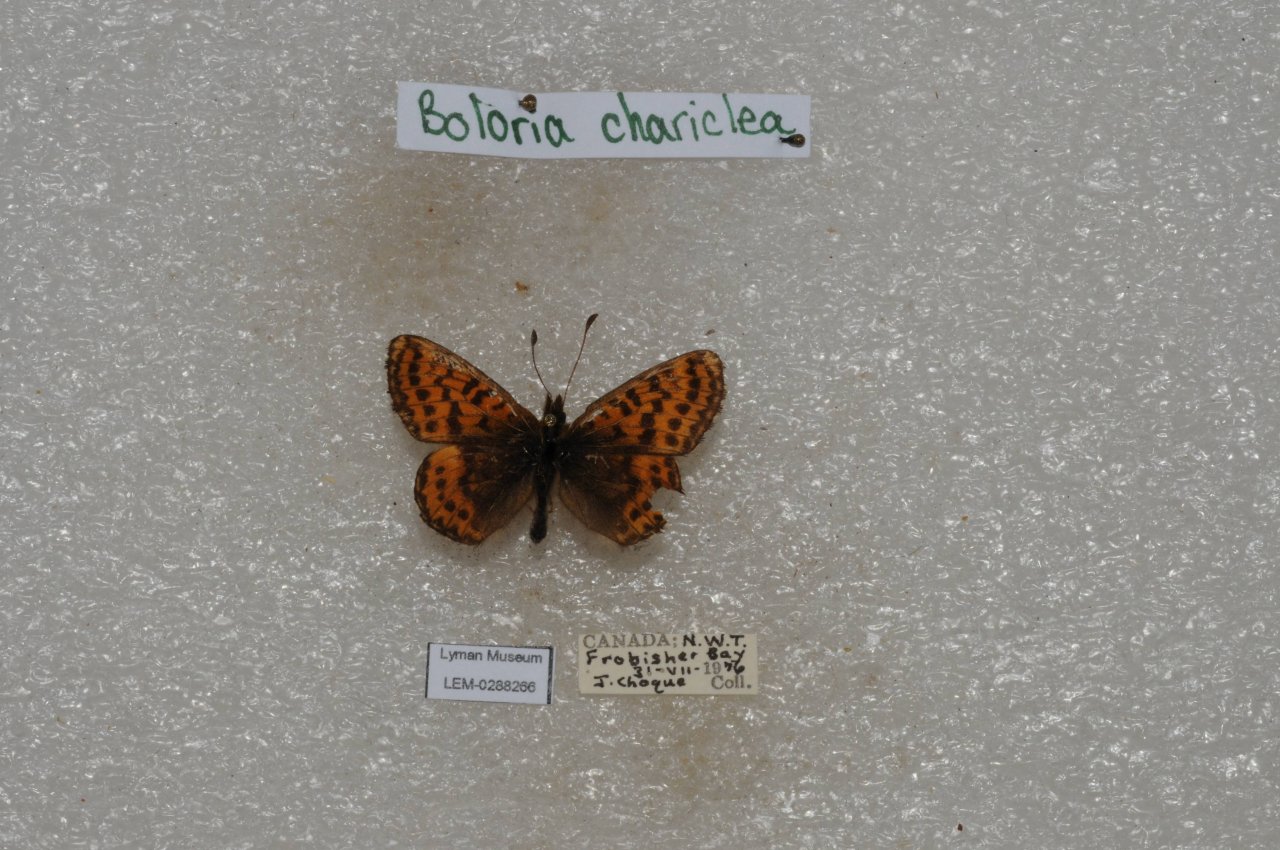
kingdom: Animalia
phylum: Arthropoda
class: Insecta
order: Lepidoptera
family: Nymphalidae
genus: Boloria
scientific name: Boloria chariclea
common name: Arctic Fritillary
